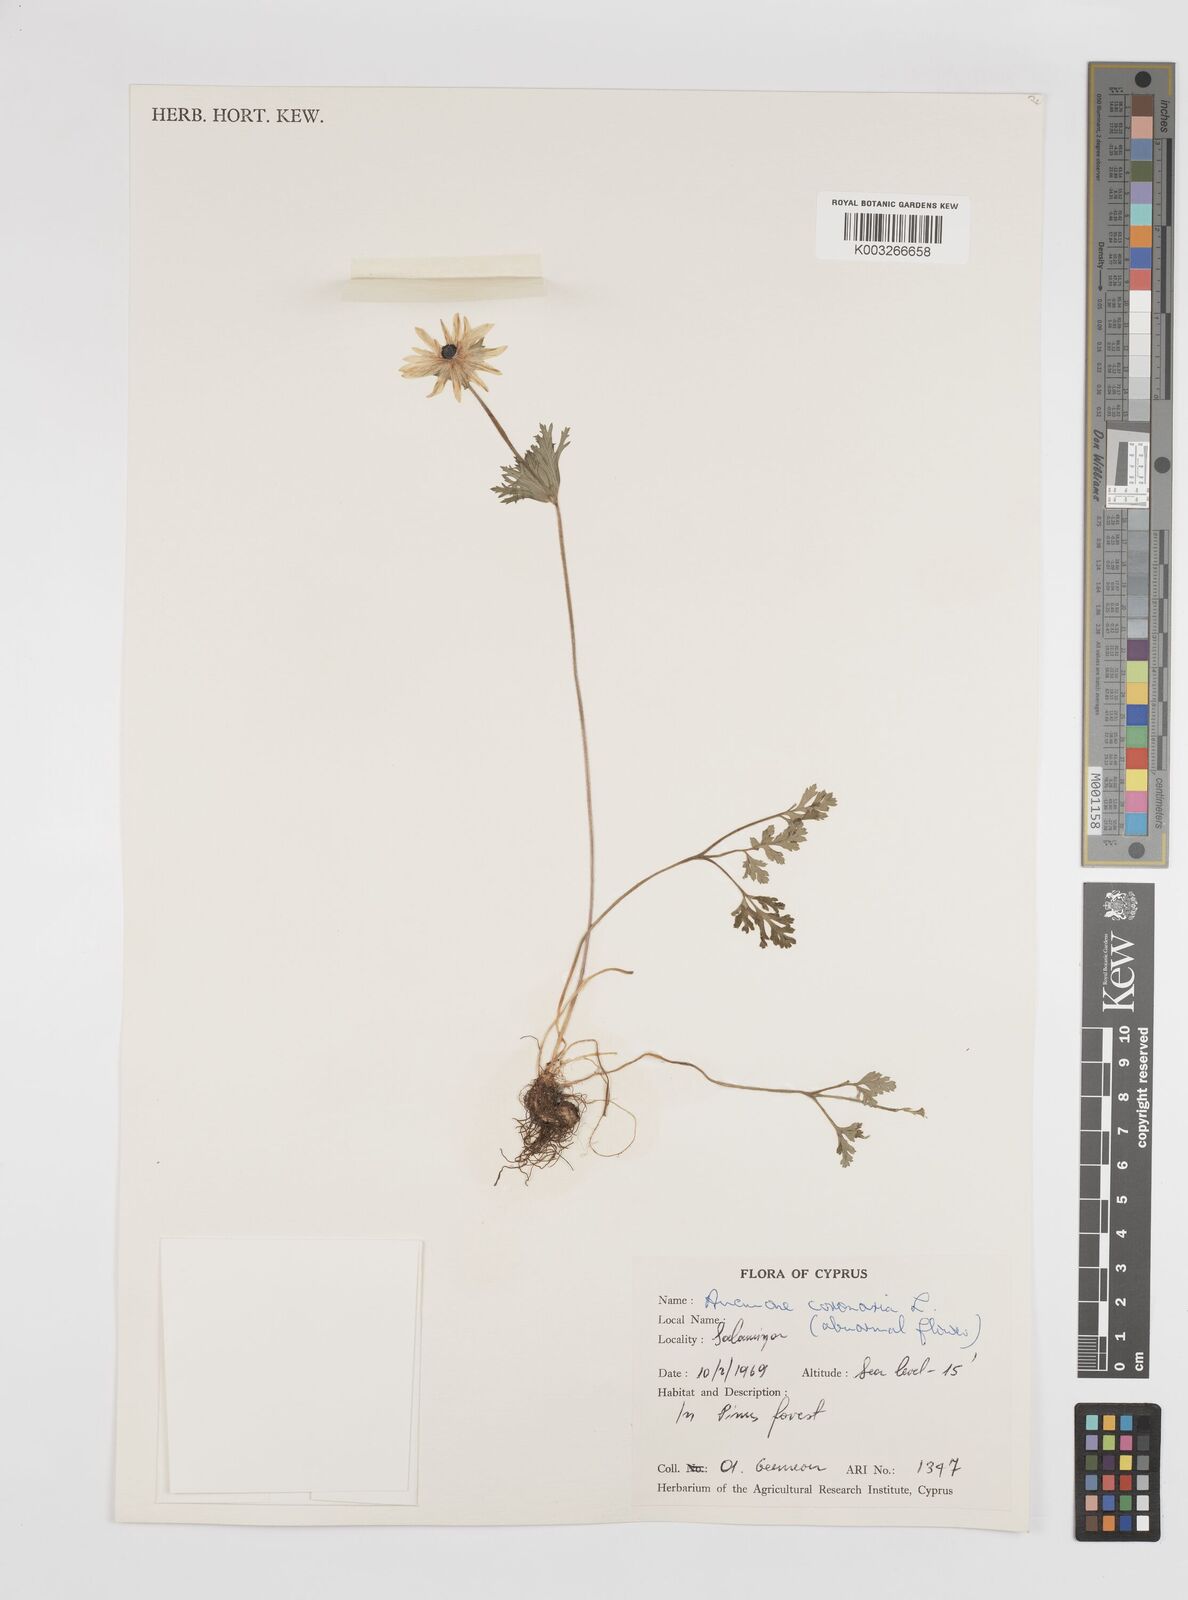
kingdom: Plantae
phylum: Tracheophyta
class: Magnoliopsida
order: Ranunculales
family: Ranunculaceae
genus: Anemone
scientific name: Anemone coronaria
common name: Poppy anemone
